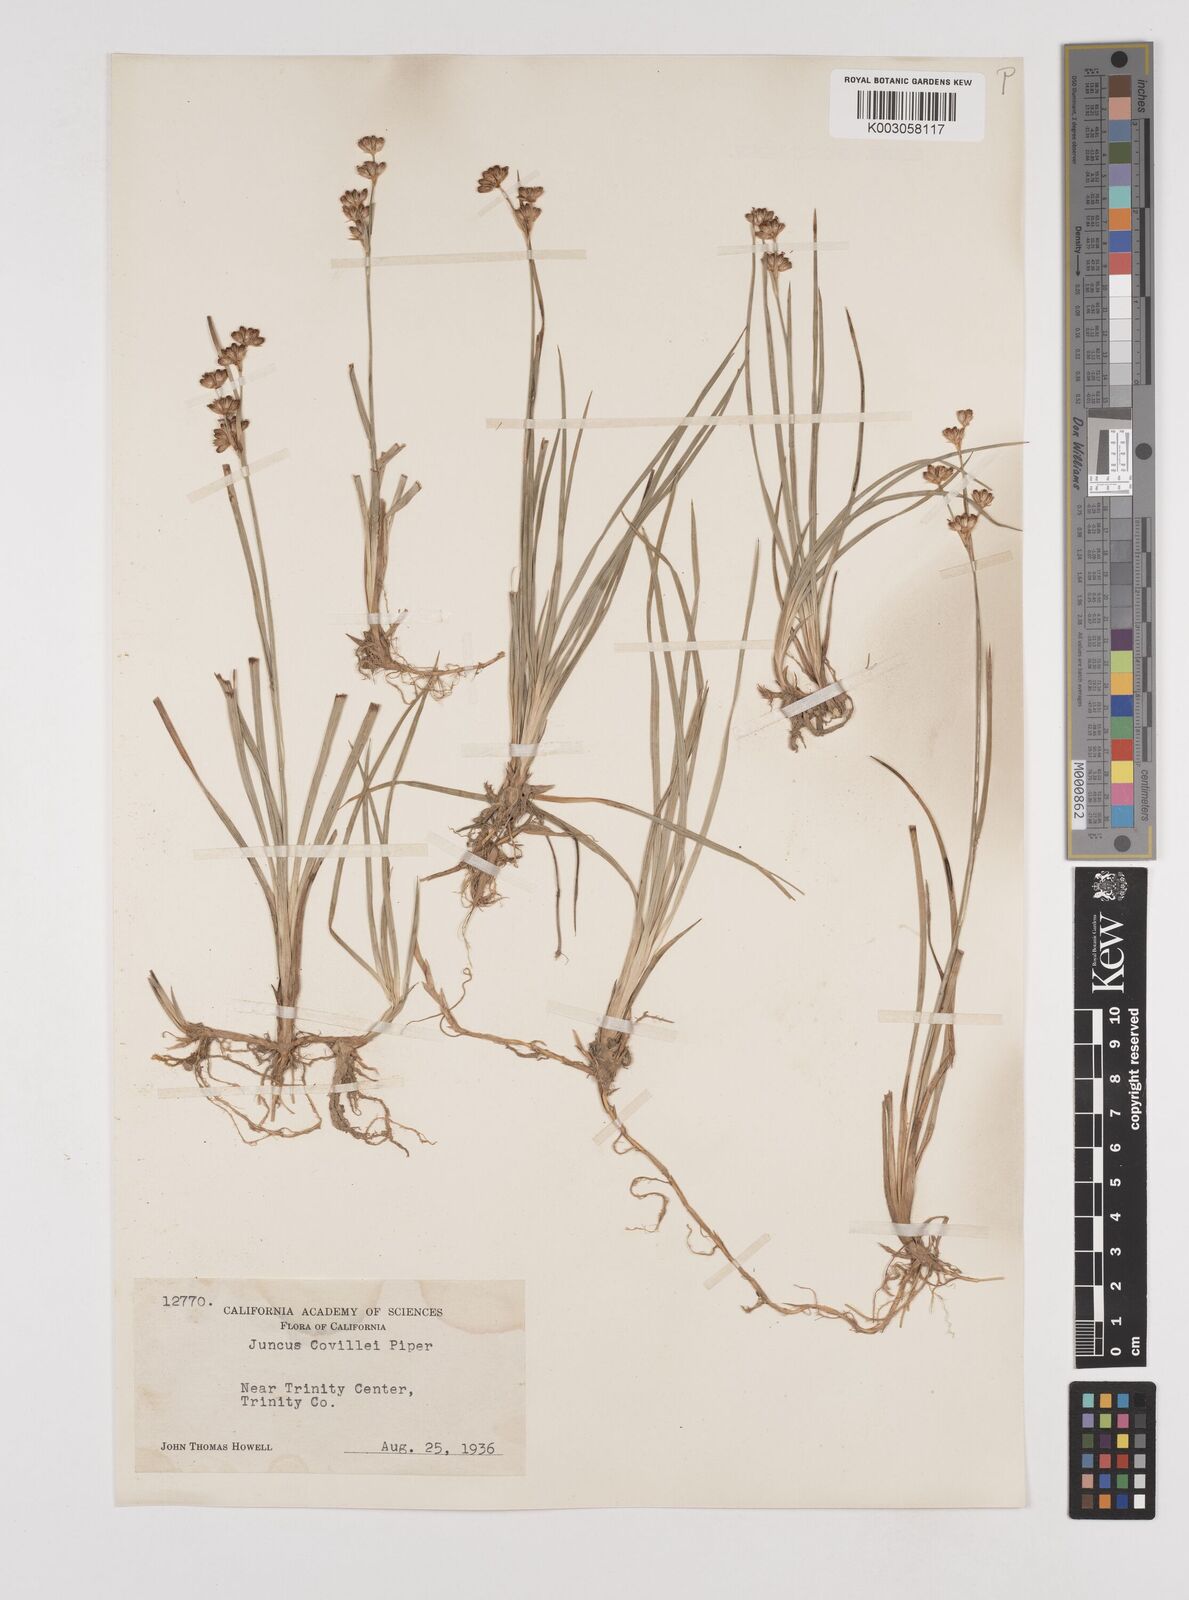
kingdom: Plantae
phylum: Tracheophyta
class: Liliopsida
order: Poales
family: Juncaceae
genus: Juncus
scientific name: Juncus covillei
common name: Coville's rush
